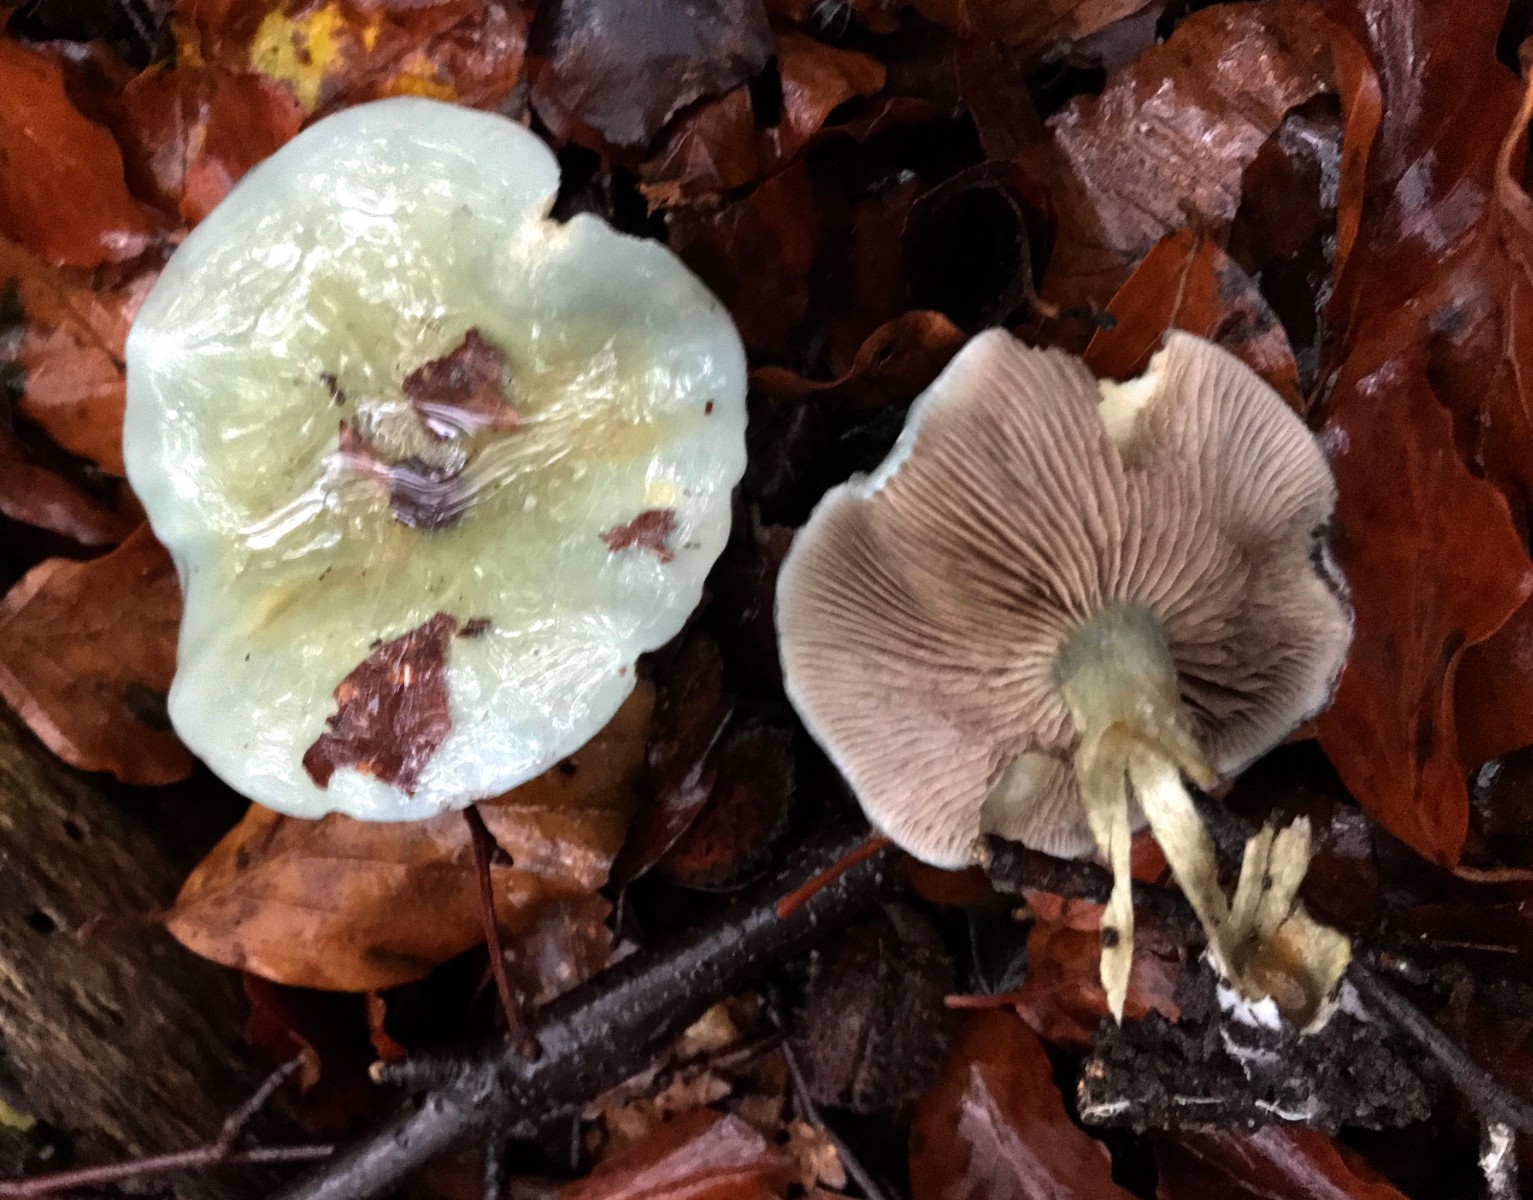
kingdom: Fungi
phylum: Basidiomycota
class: Agaricomycetes
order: Agaricales
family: Strophariaceae
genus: Stropharia
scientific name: Stropharia cyanea
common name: blågrøn bredblad
